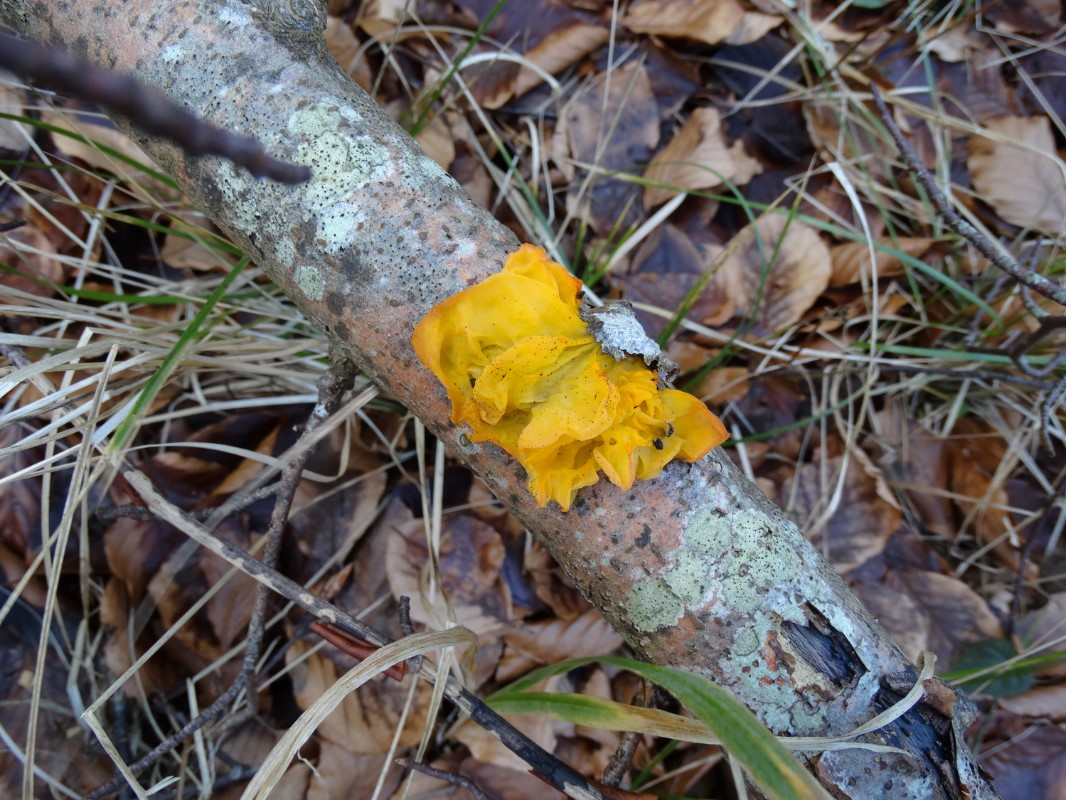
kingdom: Fungi
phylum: Basidiomycota
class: Tremellomycetes
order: Tremellales
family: Tremellaceae
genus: Tremella
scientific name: Tremella mesenterica
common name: gul bævresvamp
